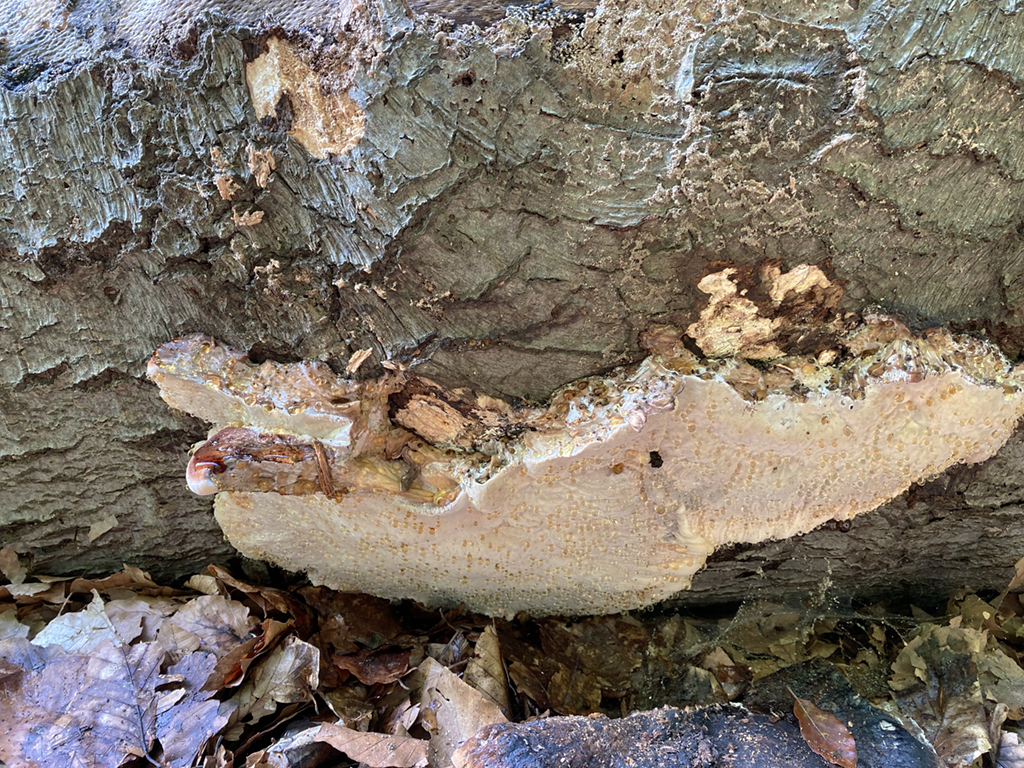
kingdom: Fungi
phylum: Basidiomycota
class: Agaricomycetes
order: Polyporales
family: Ischnodermataceae
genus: Ischnoderma
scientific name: Ischnoderma resinosum
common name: løv-tjæreporesvamp
